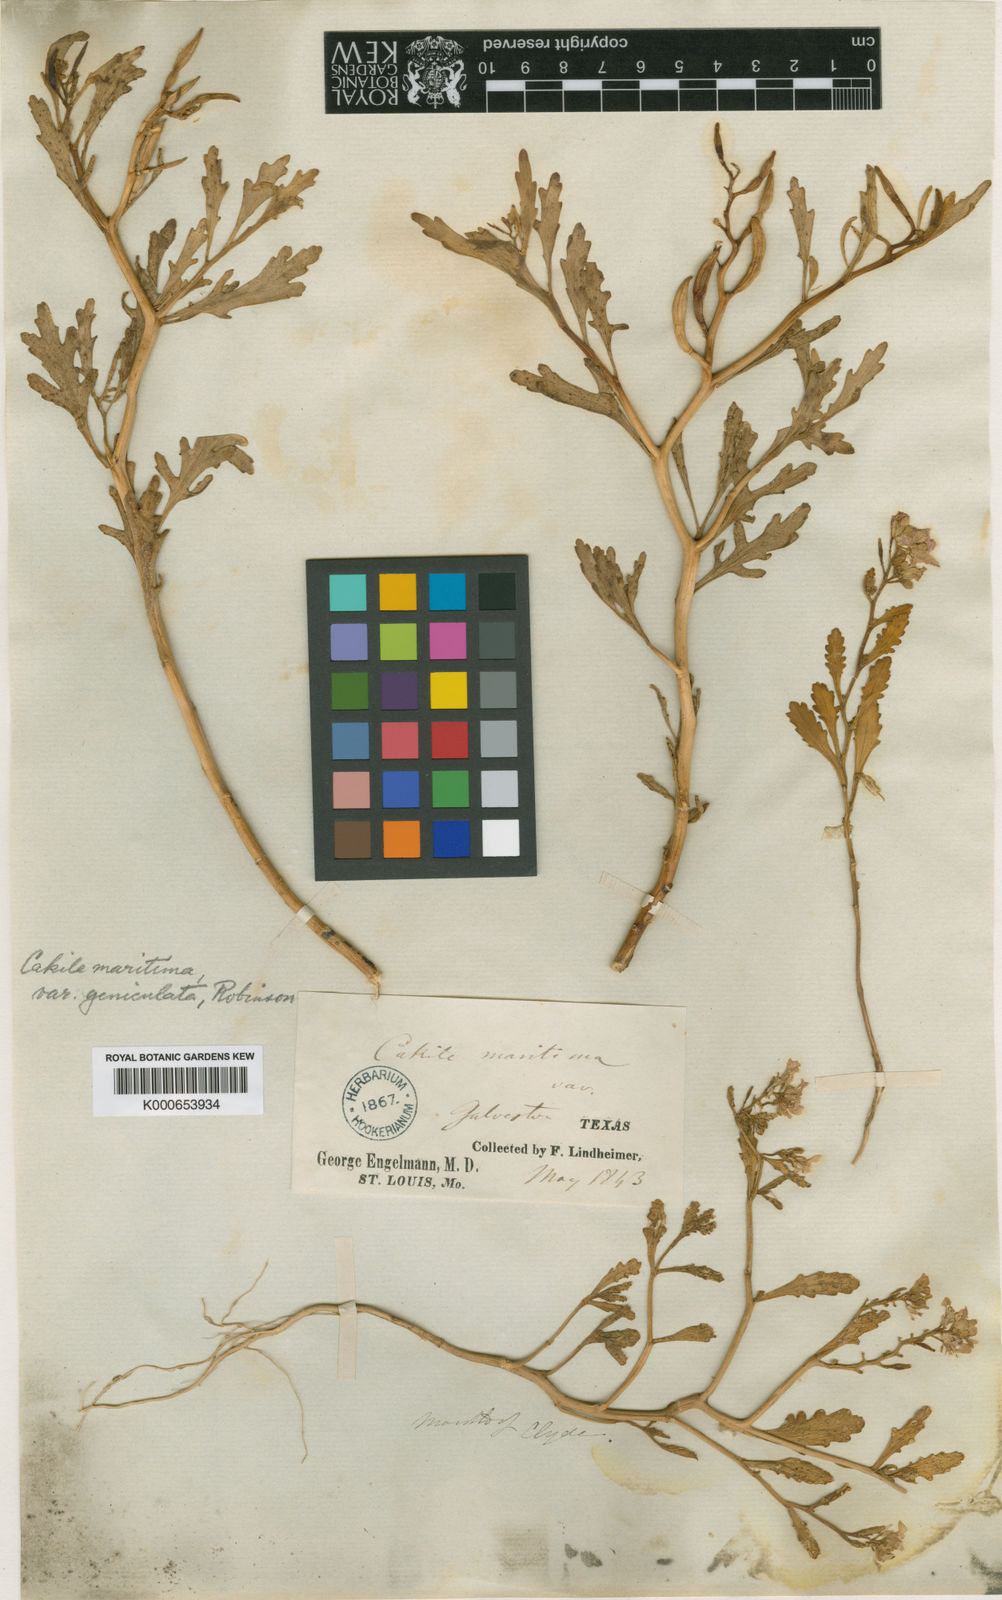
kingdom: Plantae
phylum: Tracheophyta
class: Magnoliopsida
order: Brassicales
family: Brassicaceae
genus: Cakile
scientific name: Cakile geniculata
